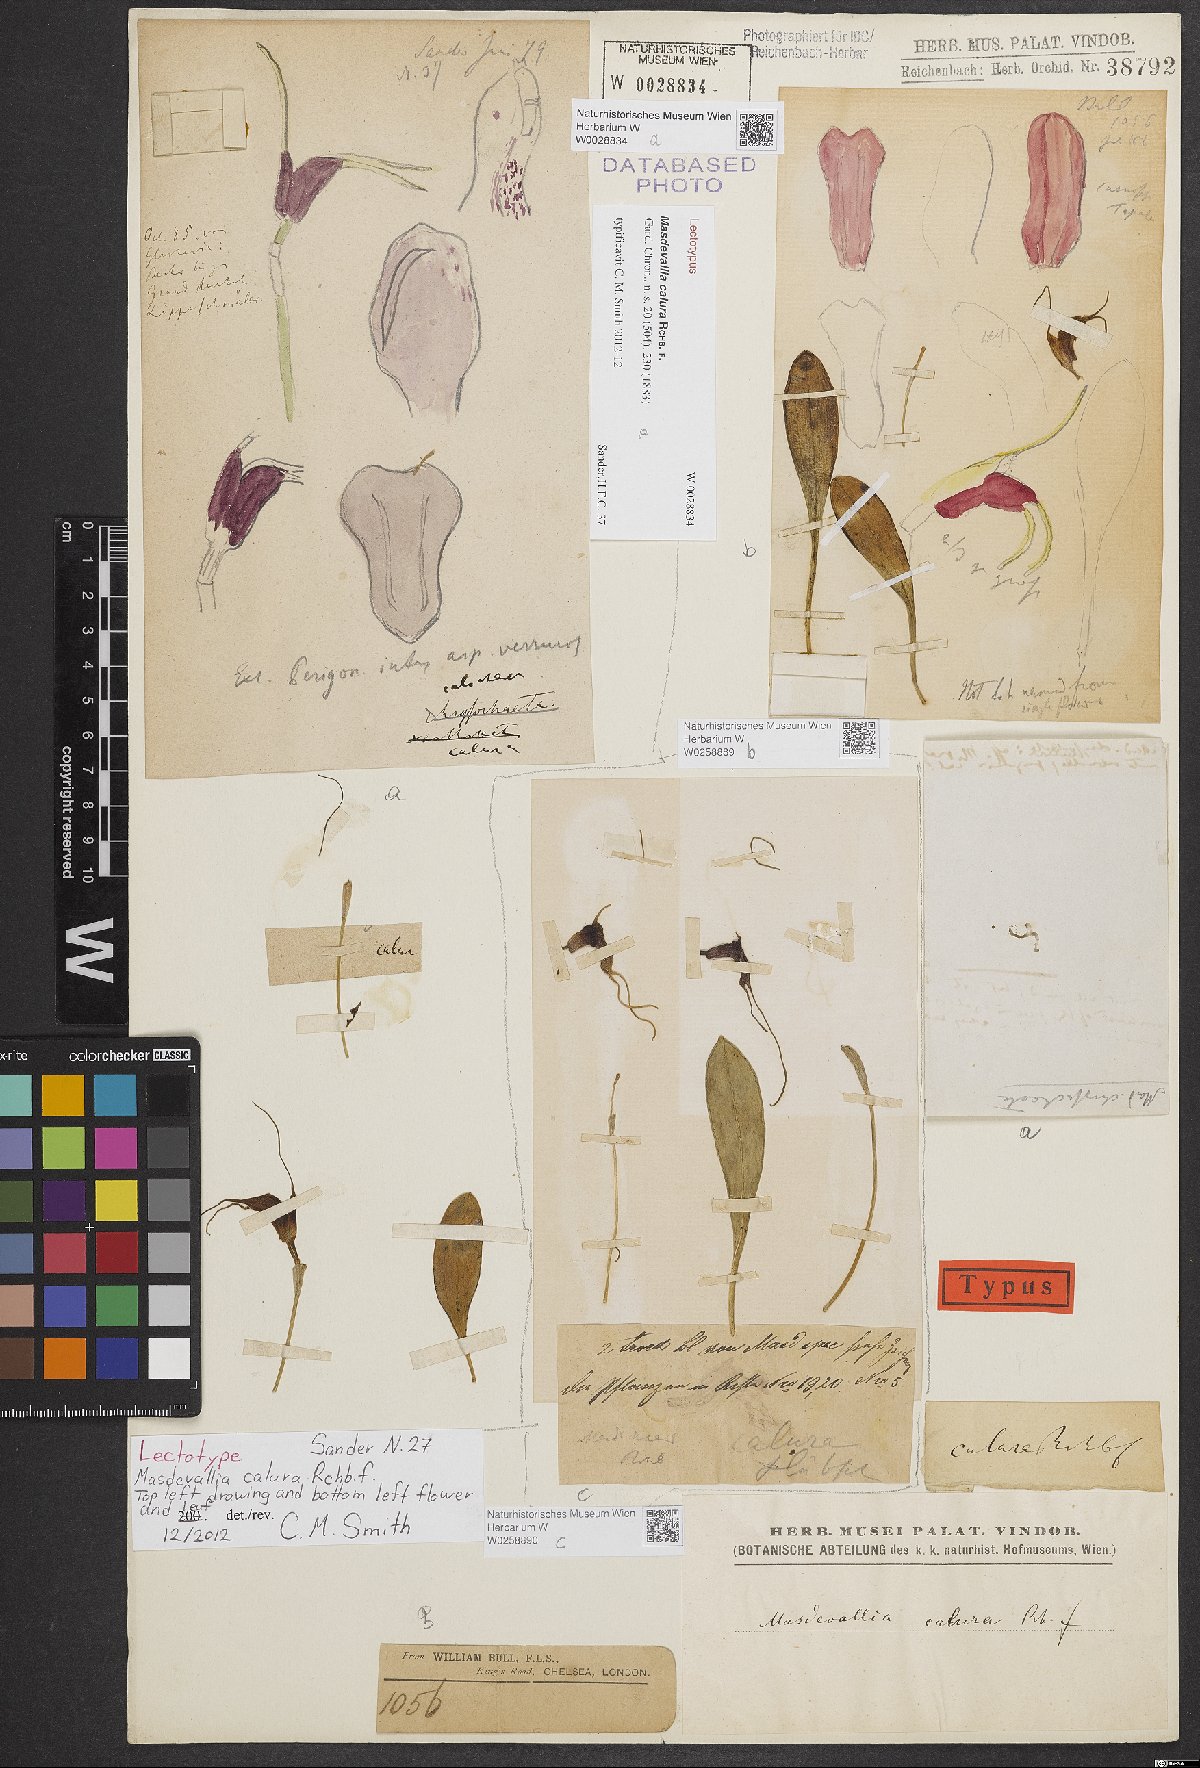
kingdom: Plantae
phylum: Tracheophyta
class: Liliopsida
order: Asparagales
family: Orchidaceae
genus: Masdevallia
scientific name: Masdevallia calura
